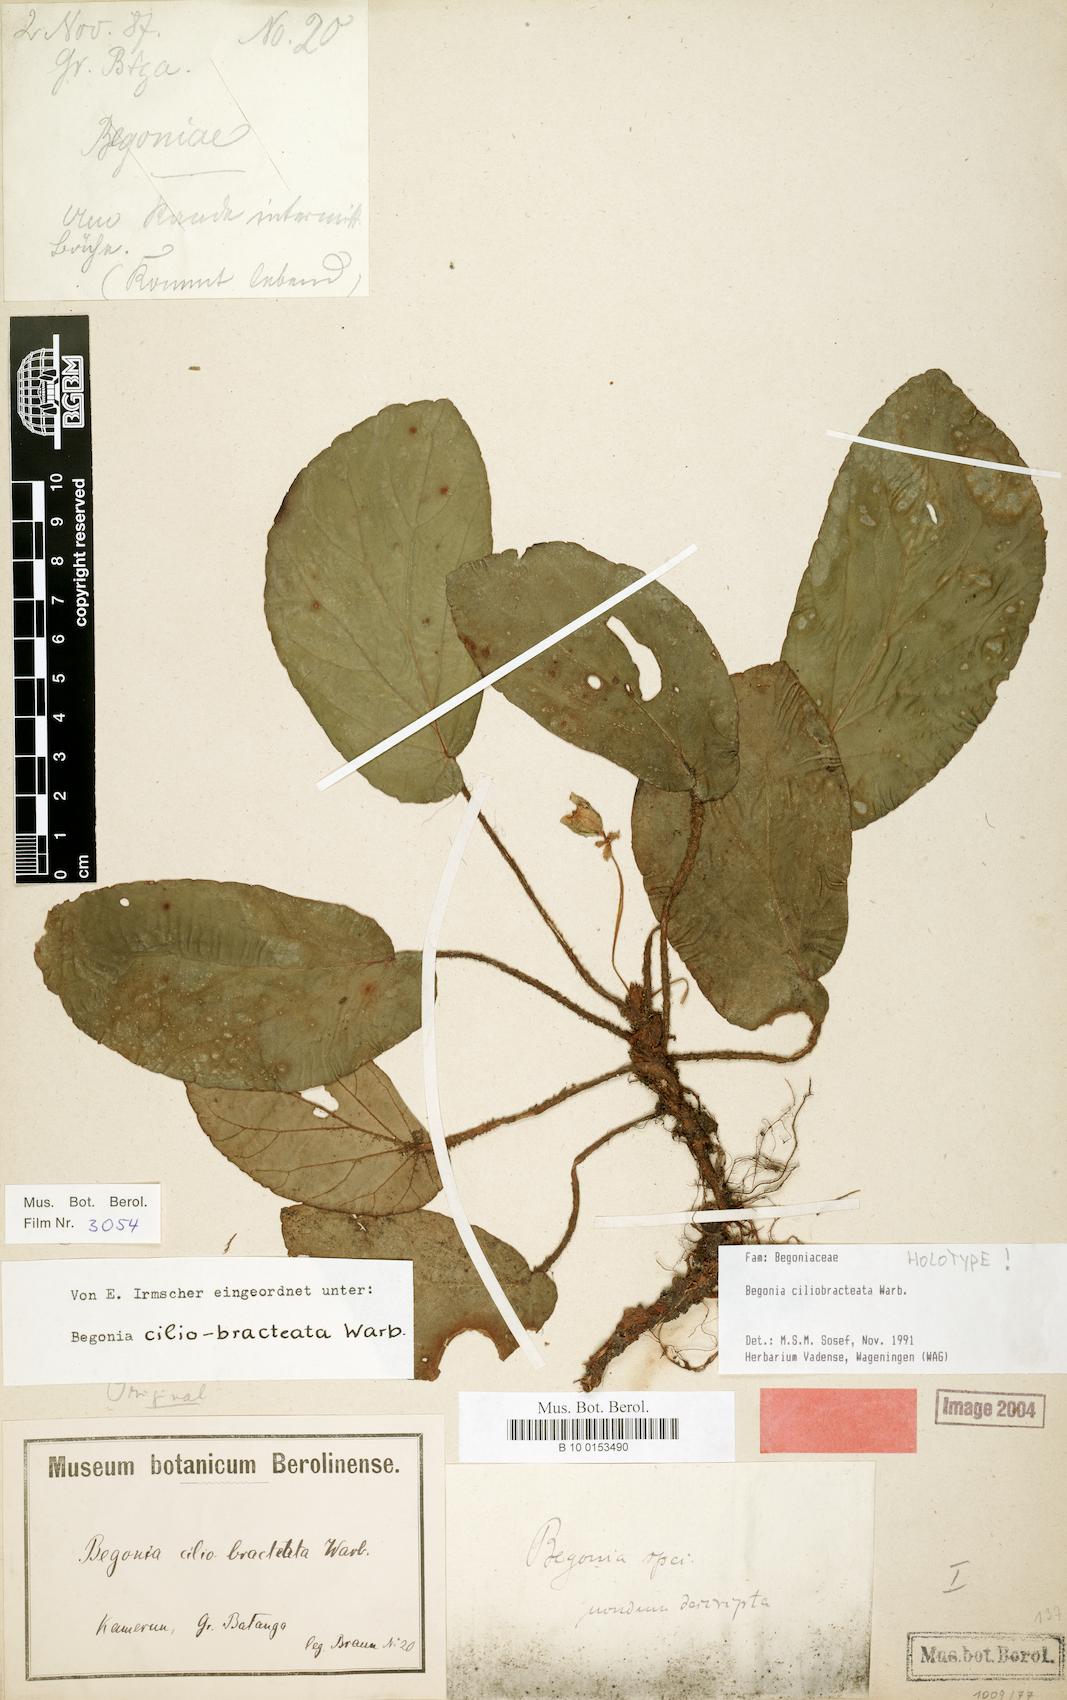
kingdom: Plantae
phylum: Tracheophyta
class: Magnoliopsida
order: Cucurbitales
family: Begoniaceae
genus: Begonia
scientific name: Begonia ciliobracteata
